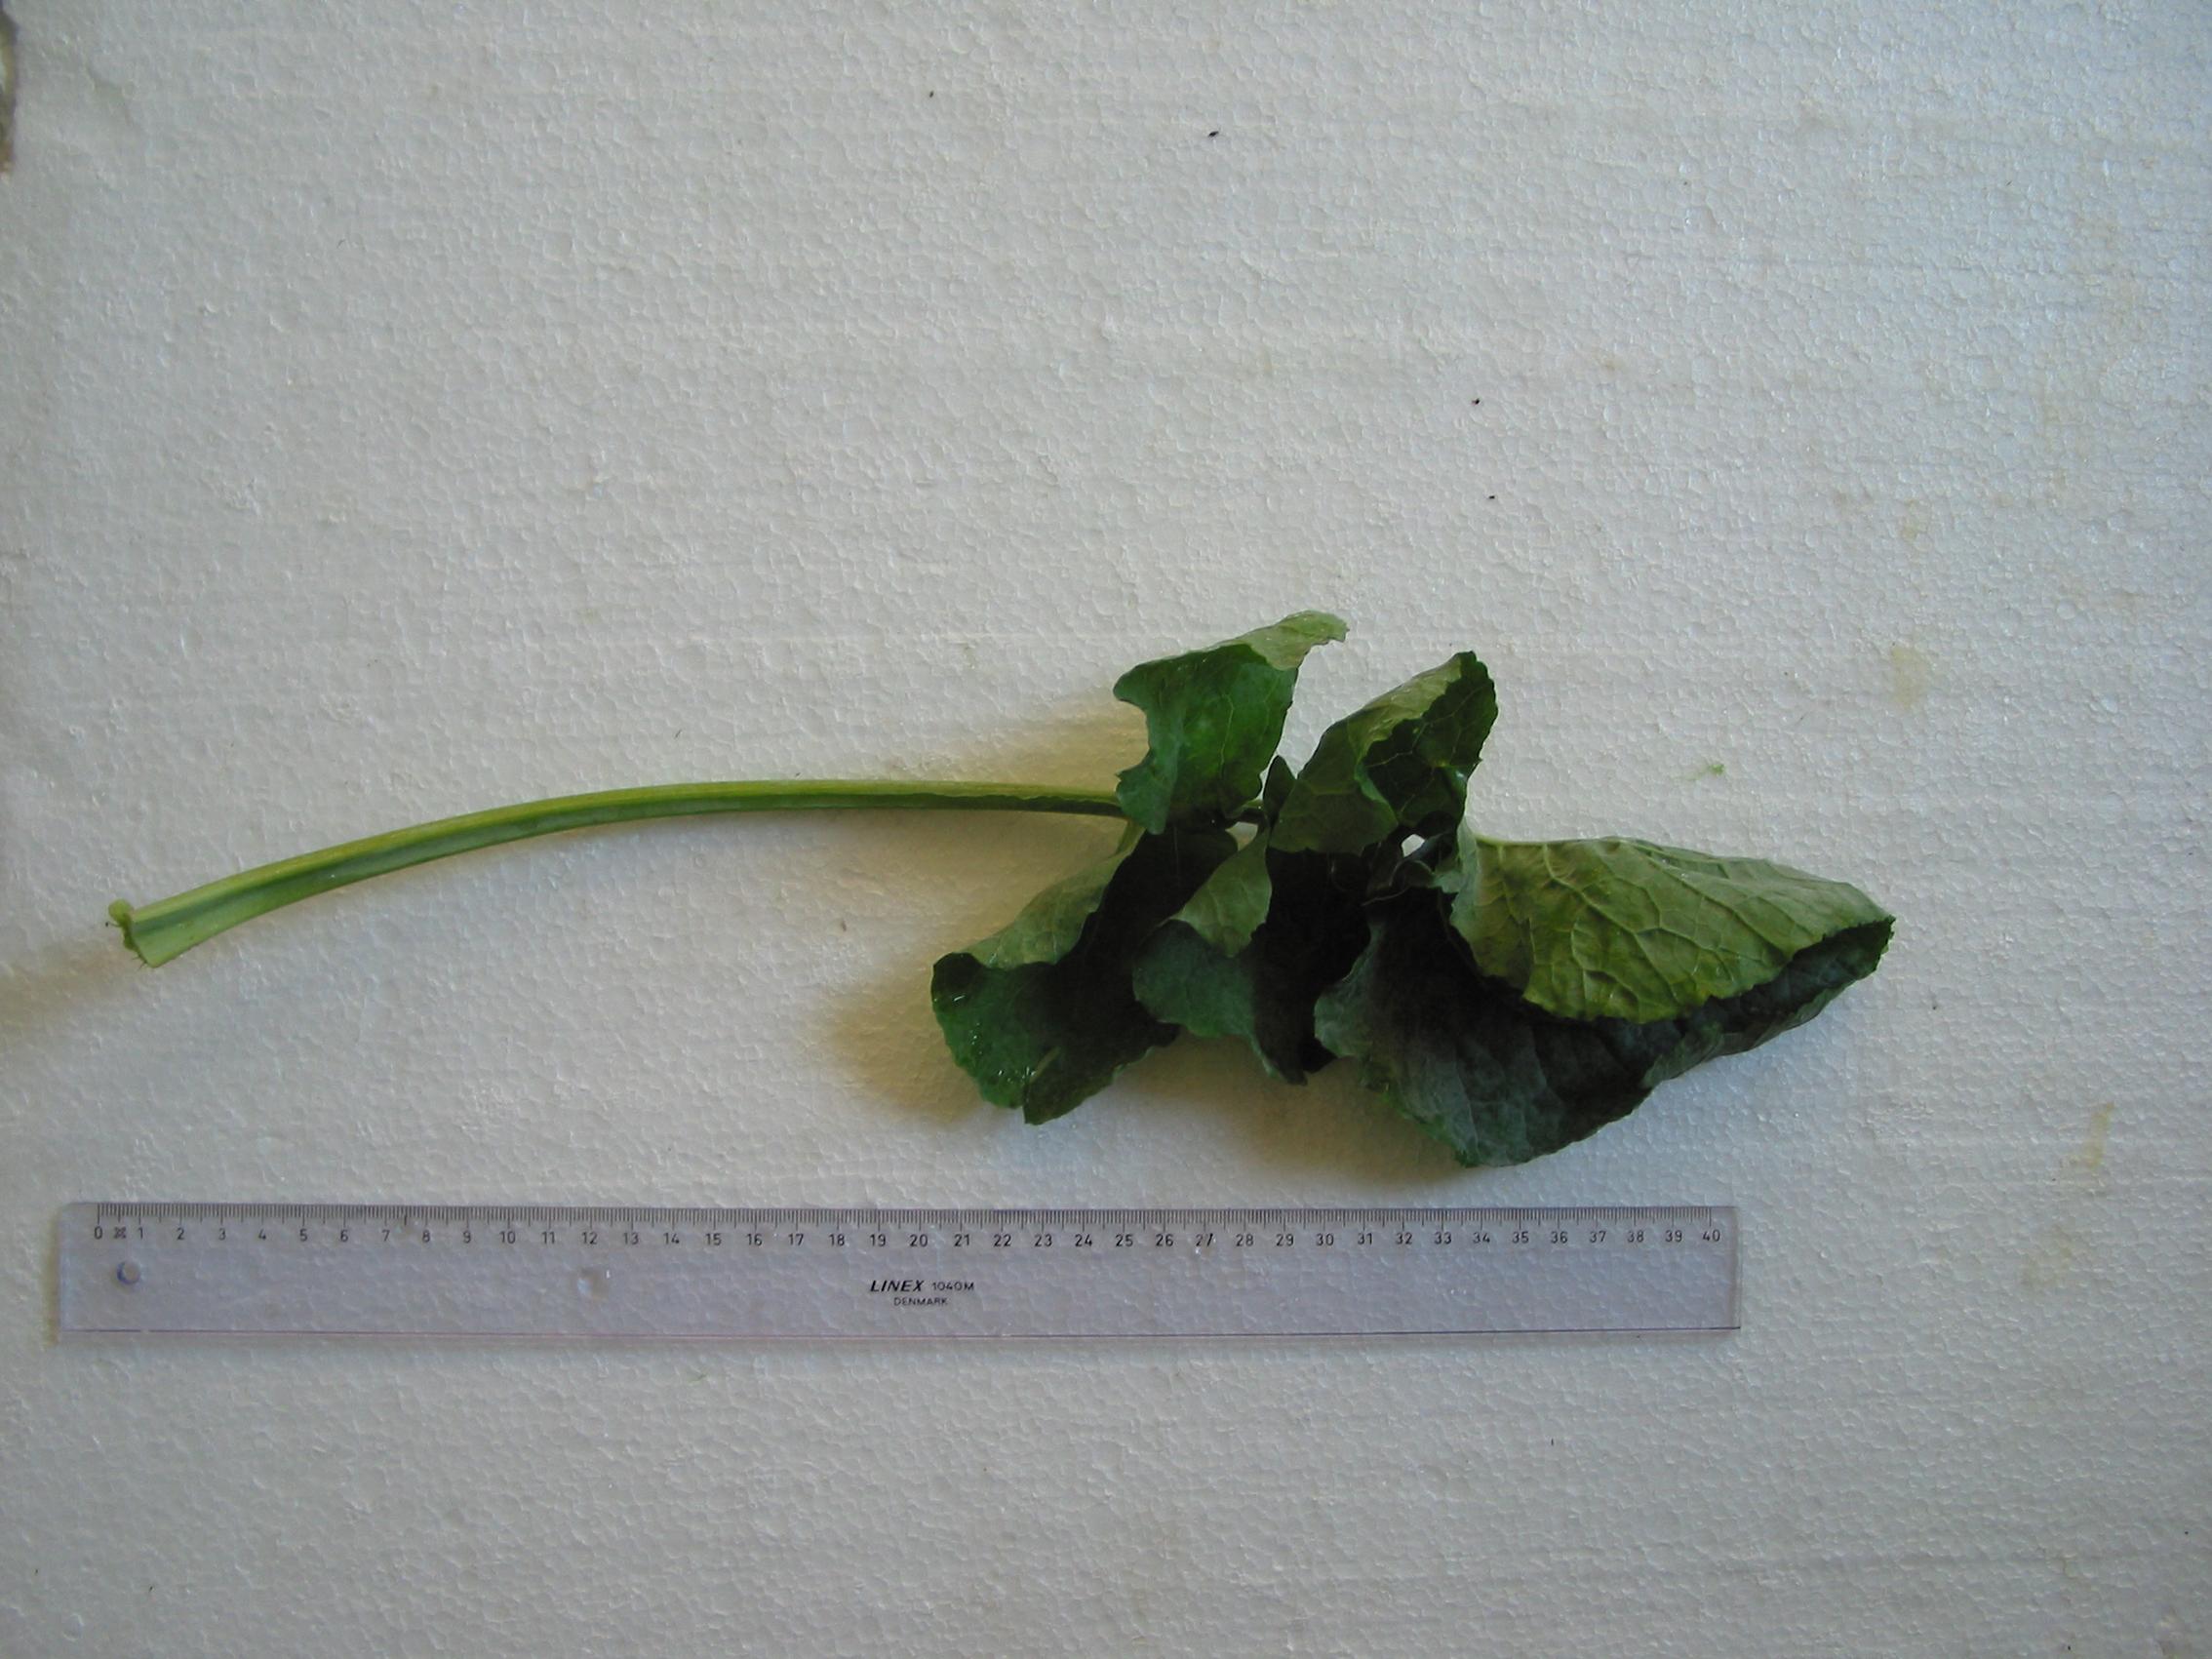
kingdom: Plantae
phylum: Tracheophyta
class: Magnoliopsida
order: Brassicales
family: Brassicaceae
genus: Brassica
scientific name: Brassica napus
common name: Rape
